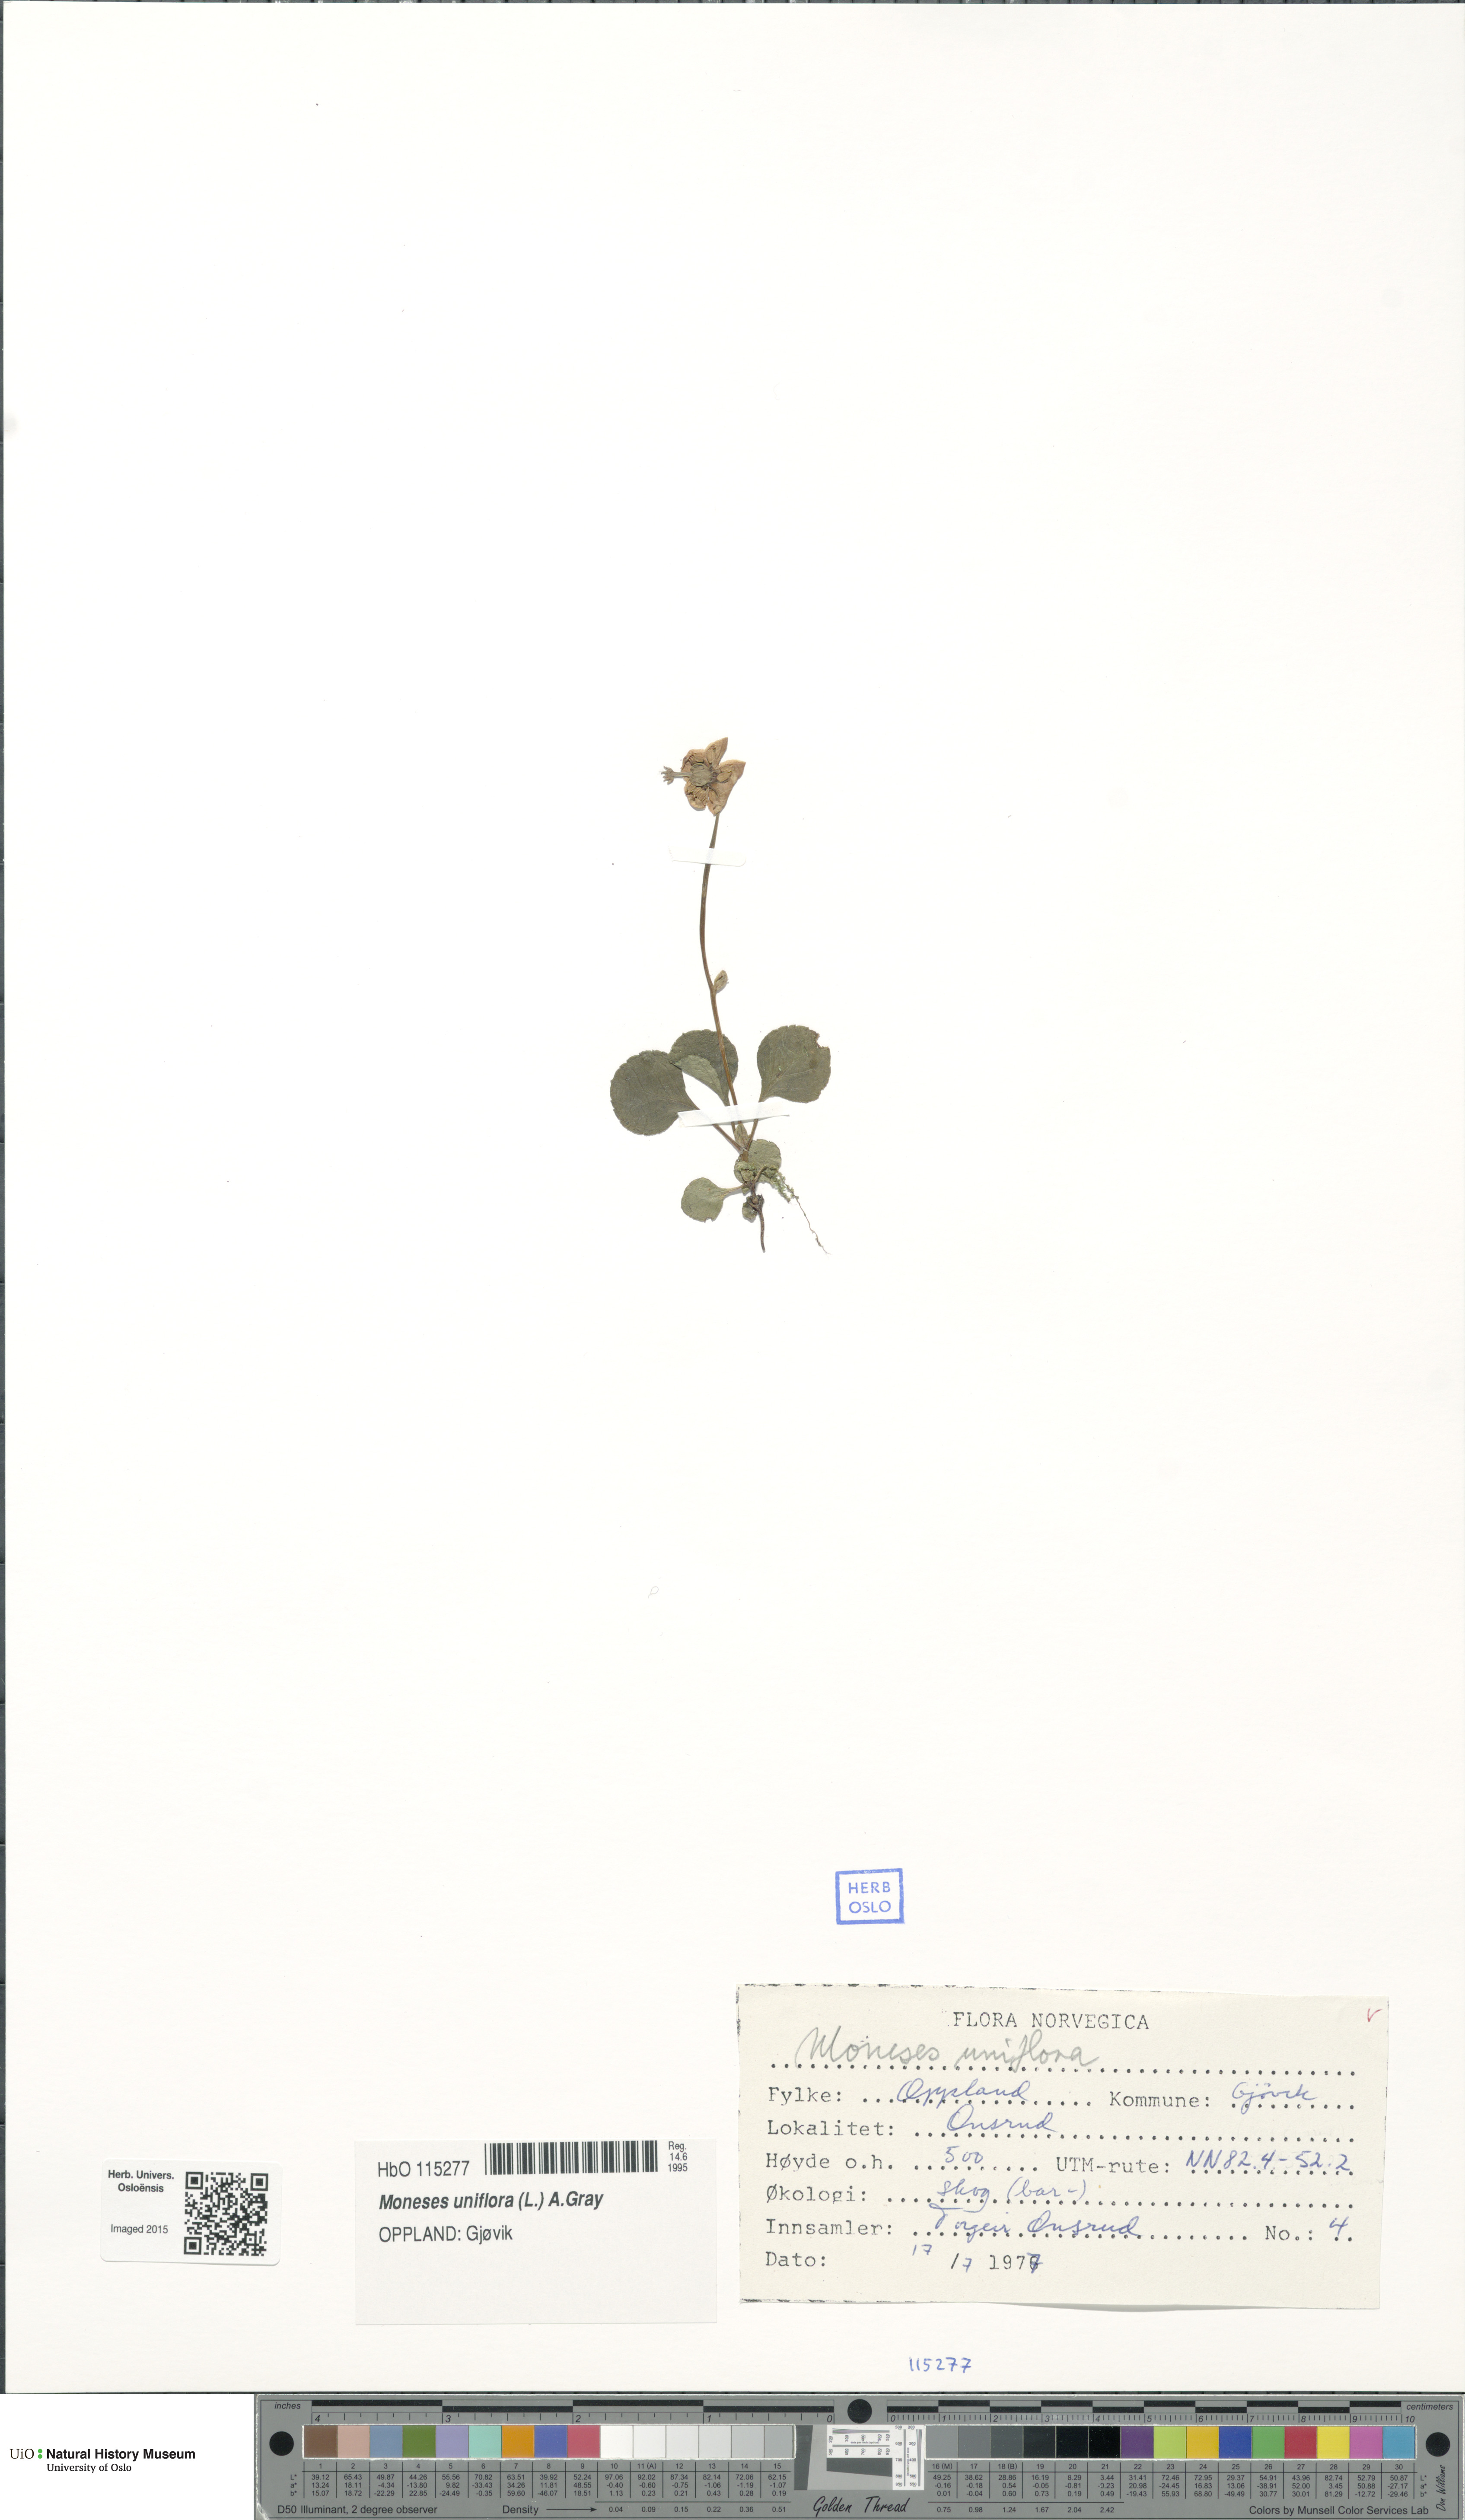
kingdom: Plantae
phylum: Tracheophyta
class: Magnoliopsida
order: Ericales
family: Ericaceae
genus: Moneses
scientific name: Moneses uniflora
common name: One-flowered wintergreen
